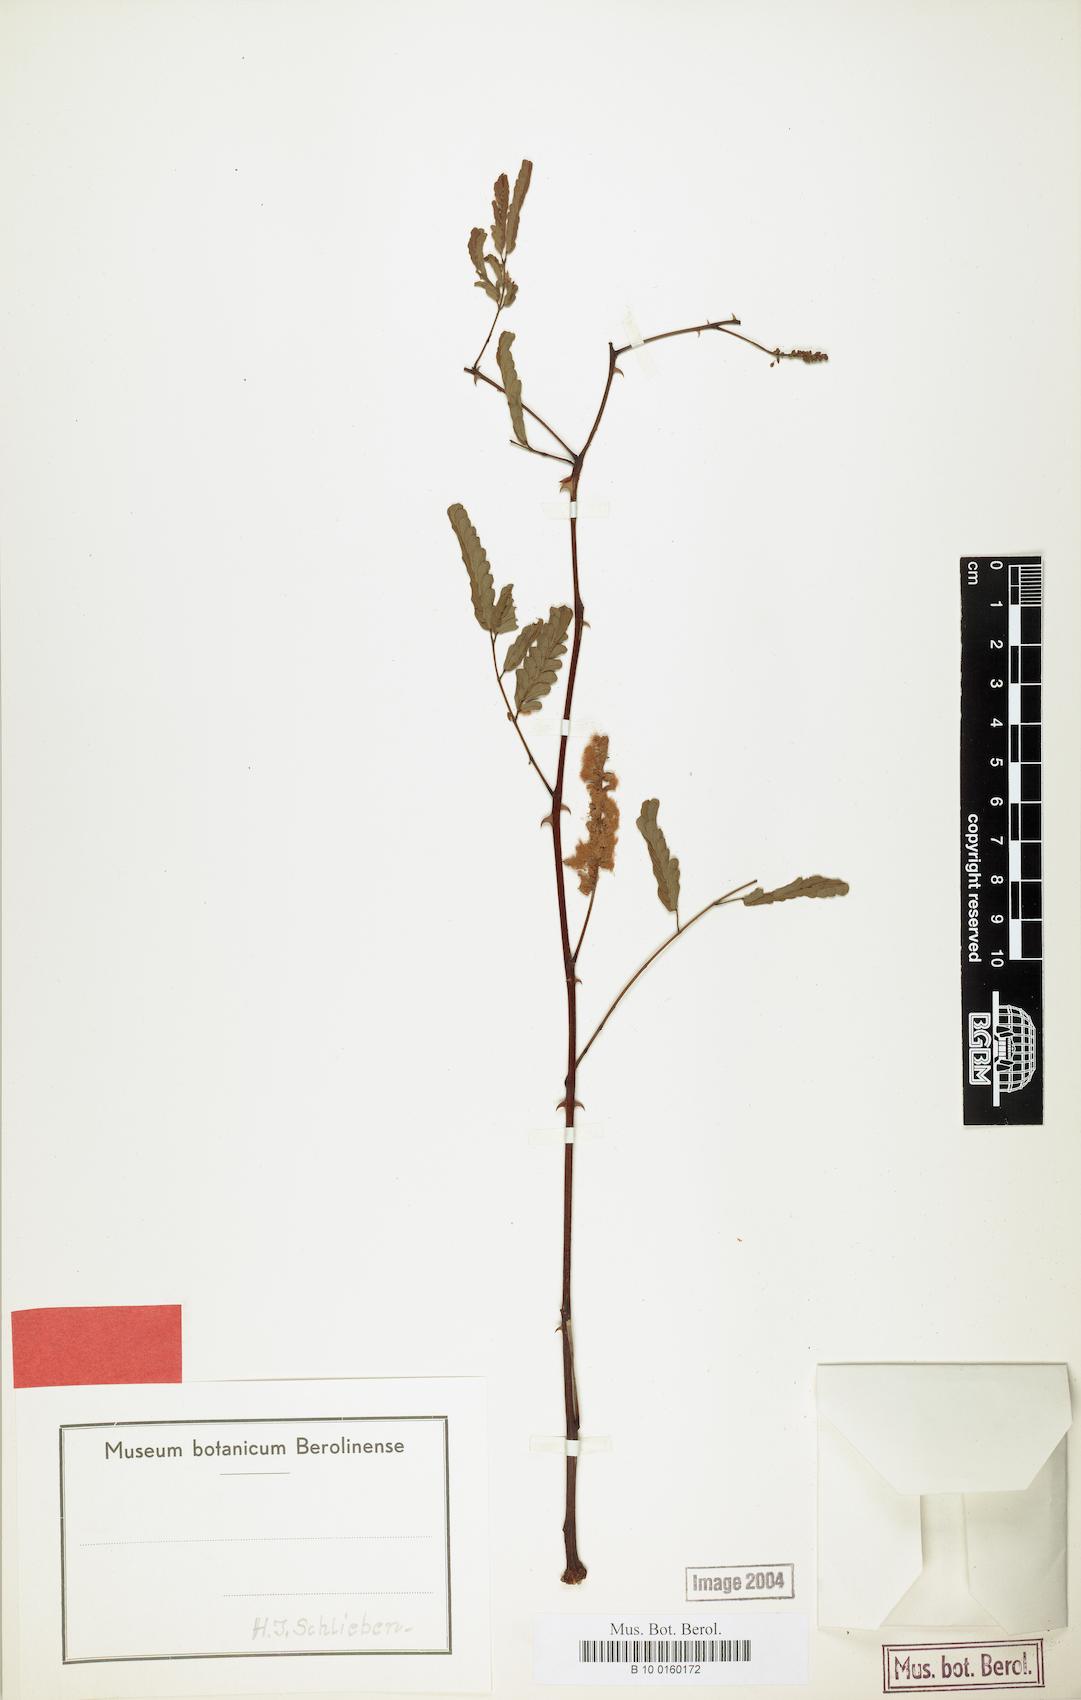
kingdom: Plantae
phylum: Tracheophyta
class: Magnoliopsida
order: Fabales
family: Fabaceae
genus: Senegalia
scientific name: Senegalia goetzei
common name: Purplepod acacia
